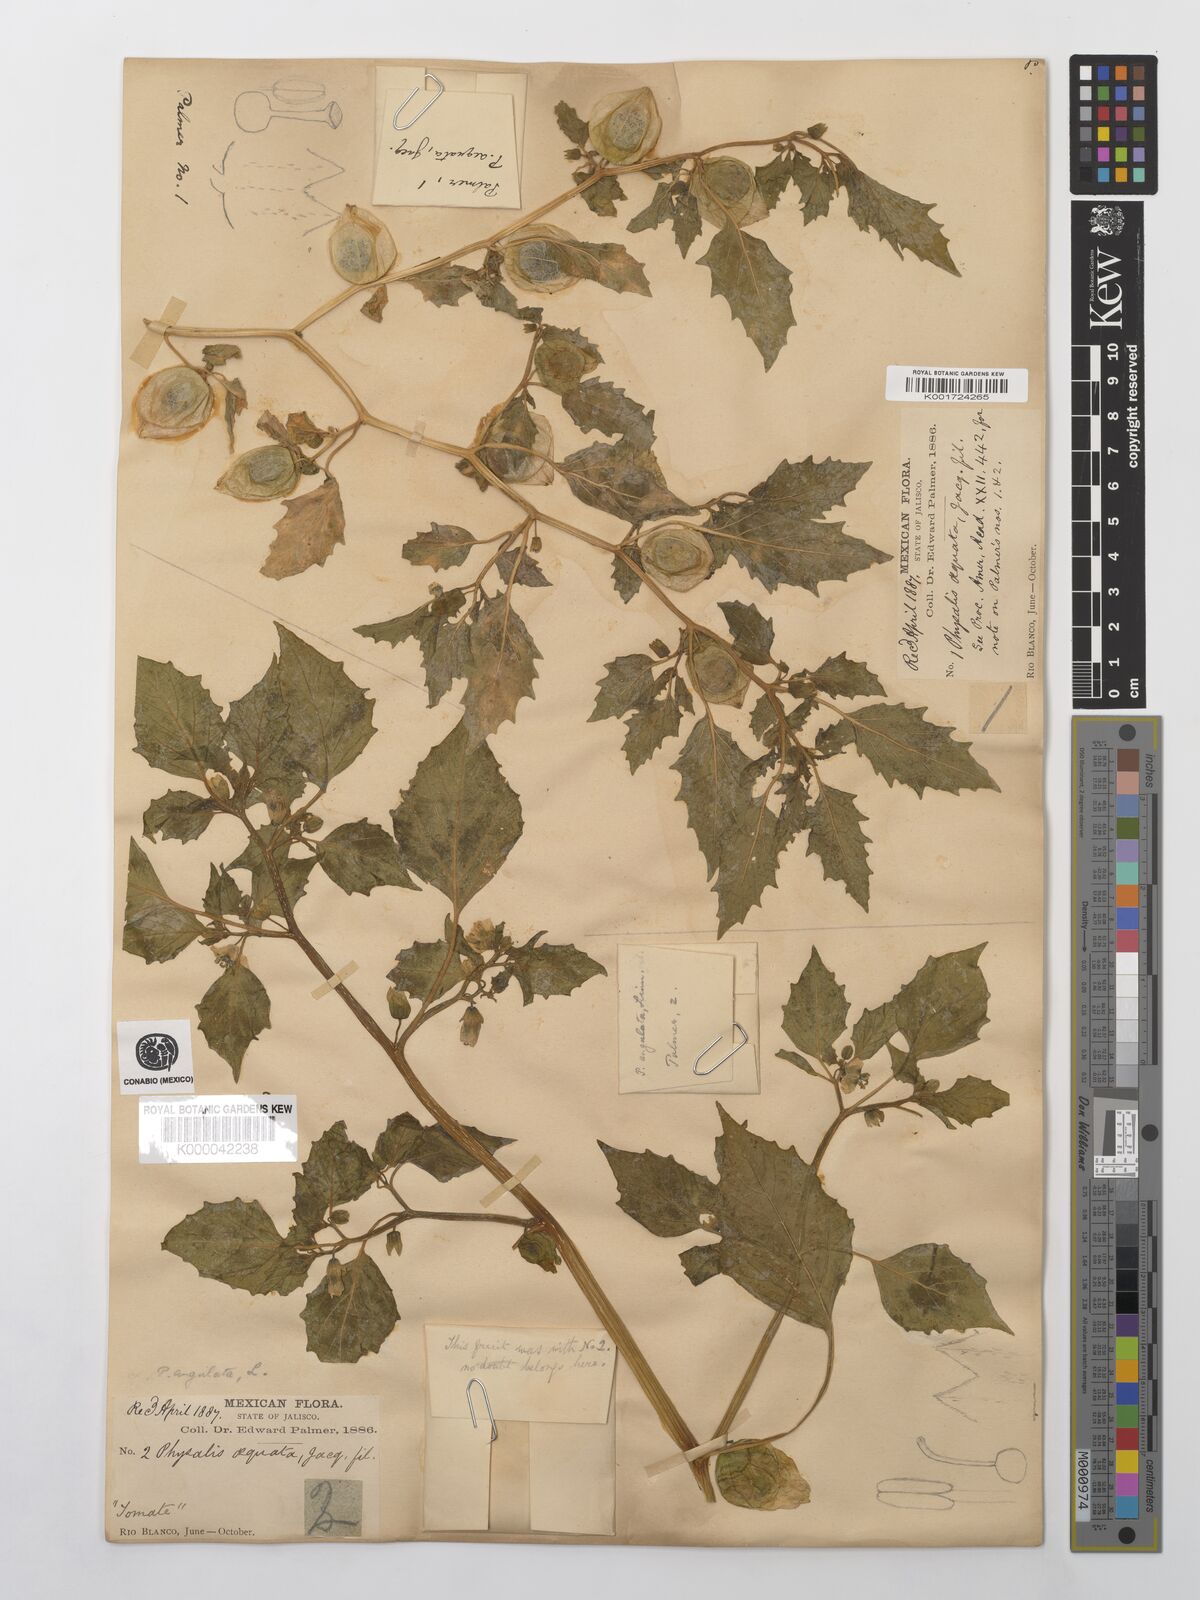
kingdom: Plantae
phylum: Tracheophyta
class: Magnoliopsida
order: Solanales
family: Solanaceae
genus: Physalis
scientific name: Physalis philadelphica
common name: Husk-tomato
